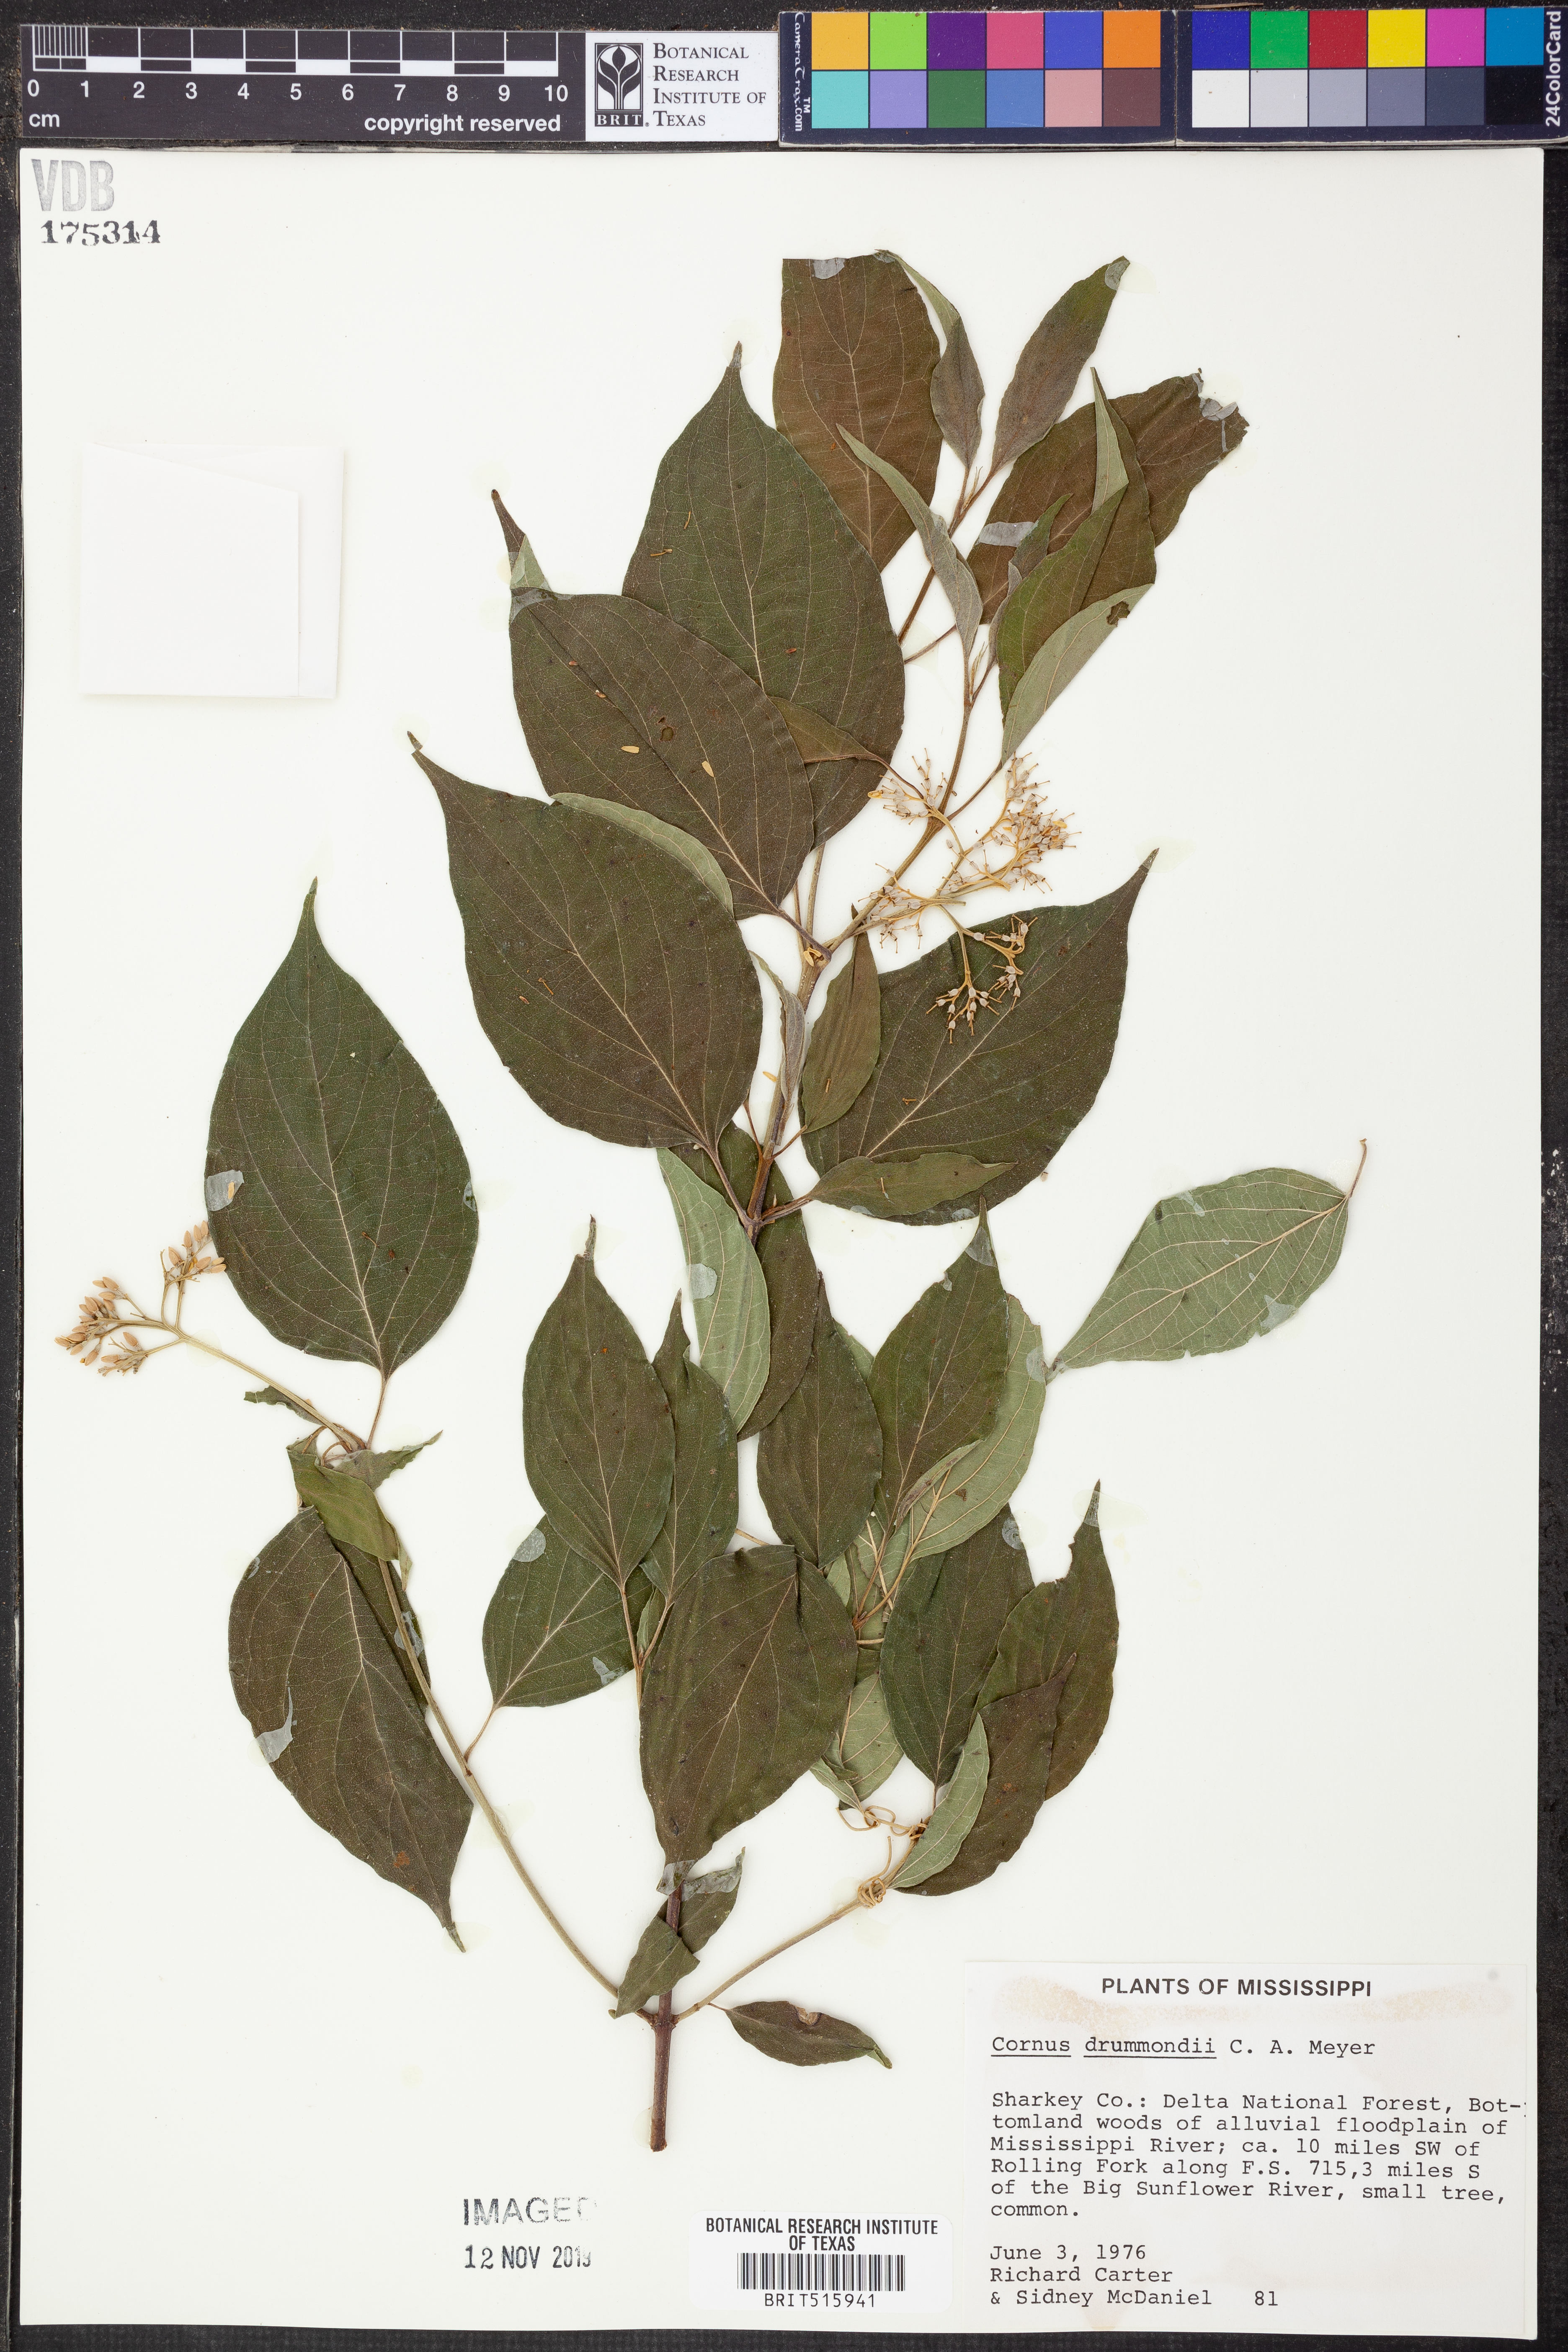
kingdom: Plantae
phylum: Tracheophyta
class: Magnoliopsida
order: Cornales
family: Cornaceae
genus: Cornus
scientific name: Cornus drummondii
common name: Rough-leaf dogwood
